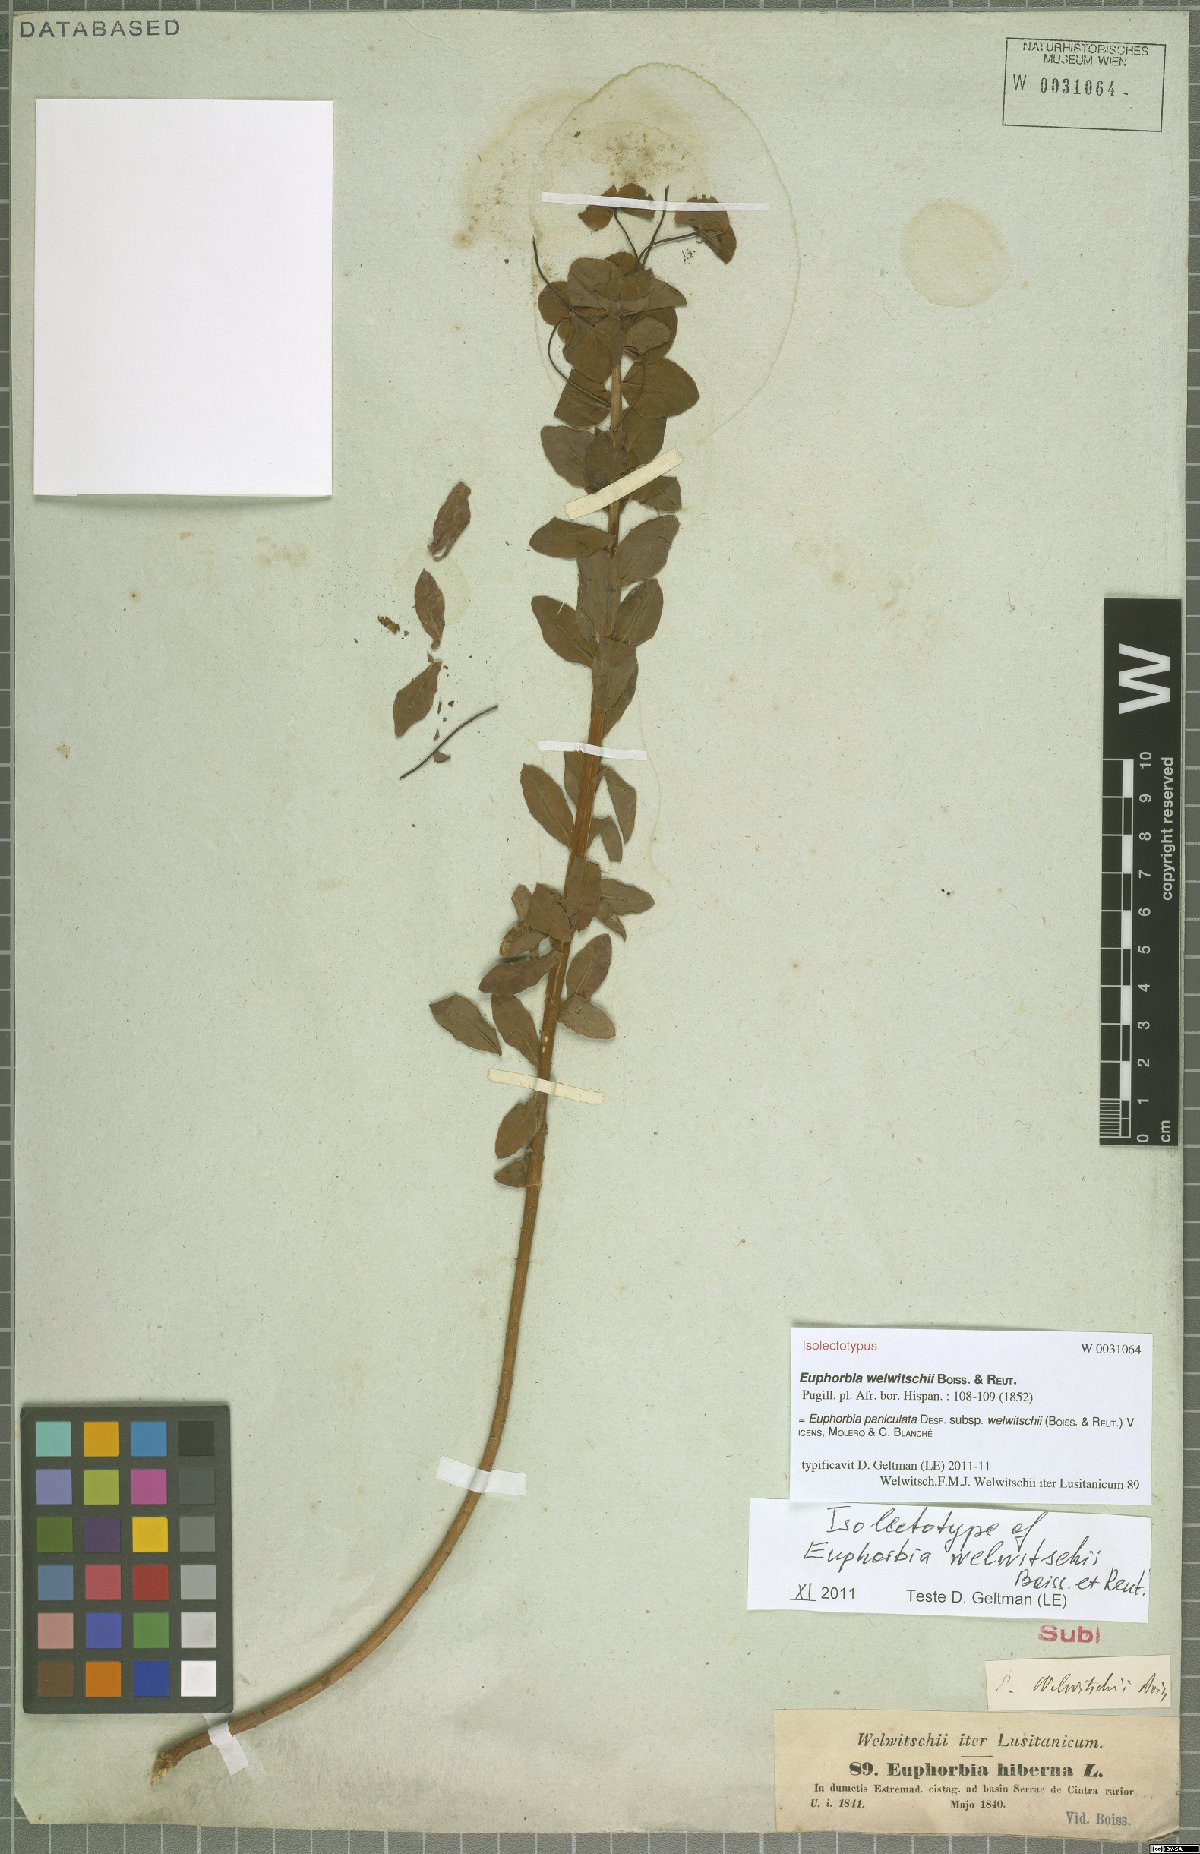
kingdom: Plantae
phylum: Tracheophyta
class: Magnoliopsida
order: Malpighiales
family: Euphorbiaceae
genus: Euphorbia
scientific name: Euphorbia paniculata
